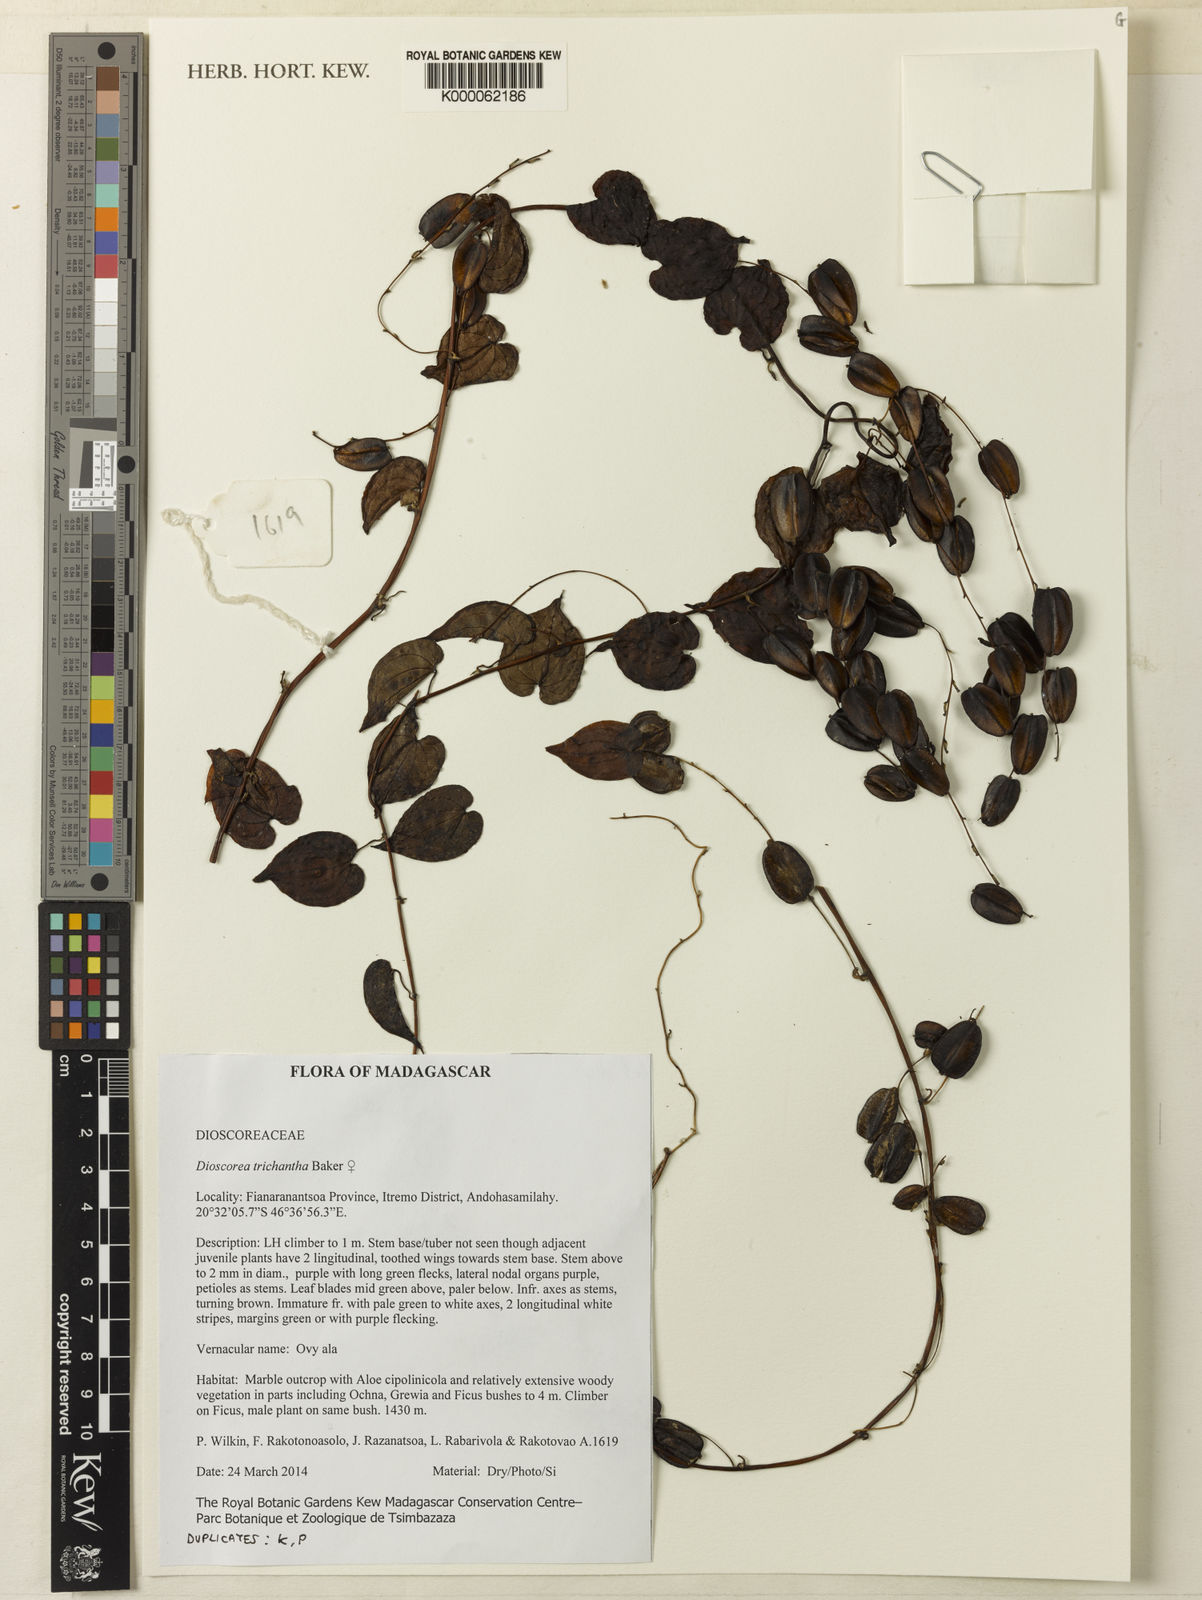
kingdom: Plantae
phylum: Tracheophyta
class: Liliopsida
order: Dioscoreales
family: Dioscoreaceae
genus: Dioscorea
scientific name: Dioscorea trichantha
